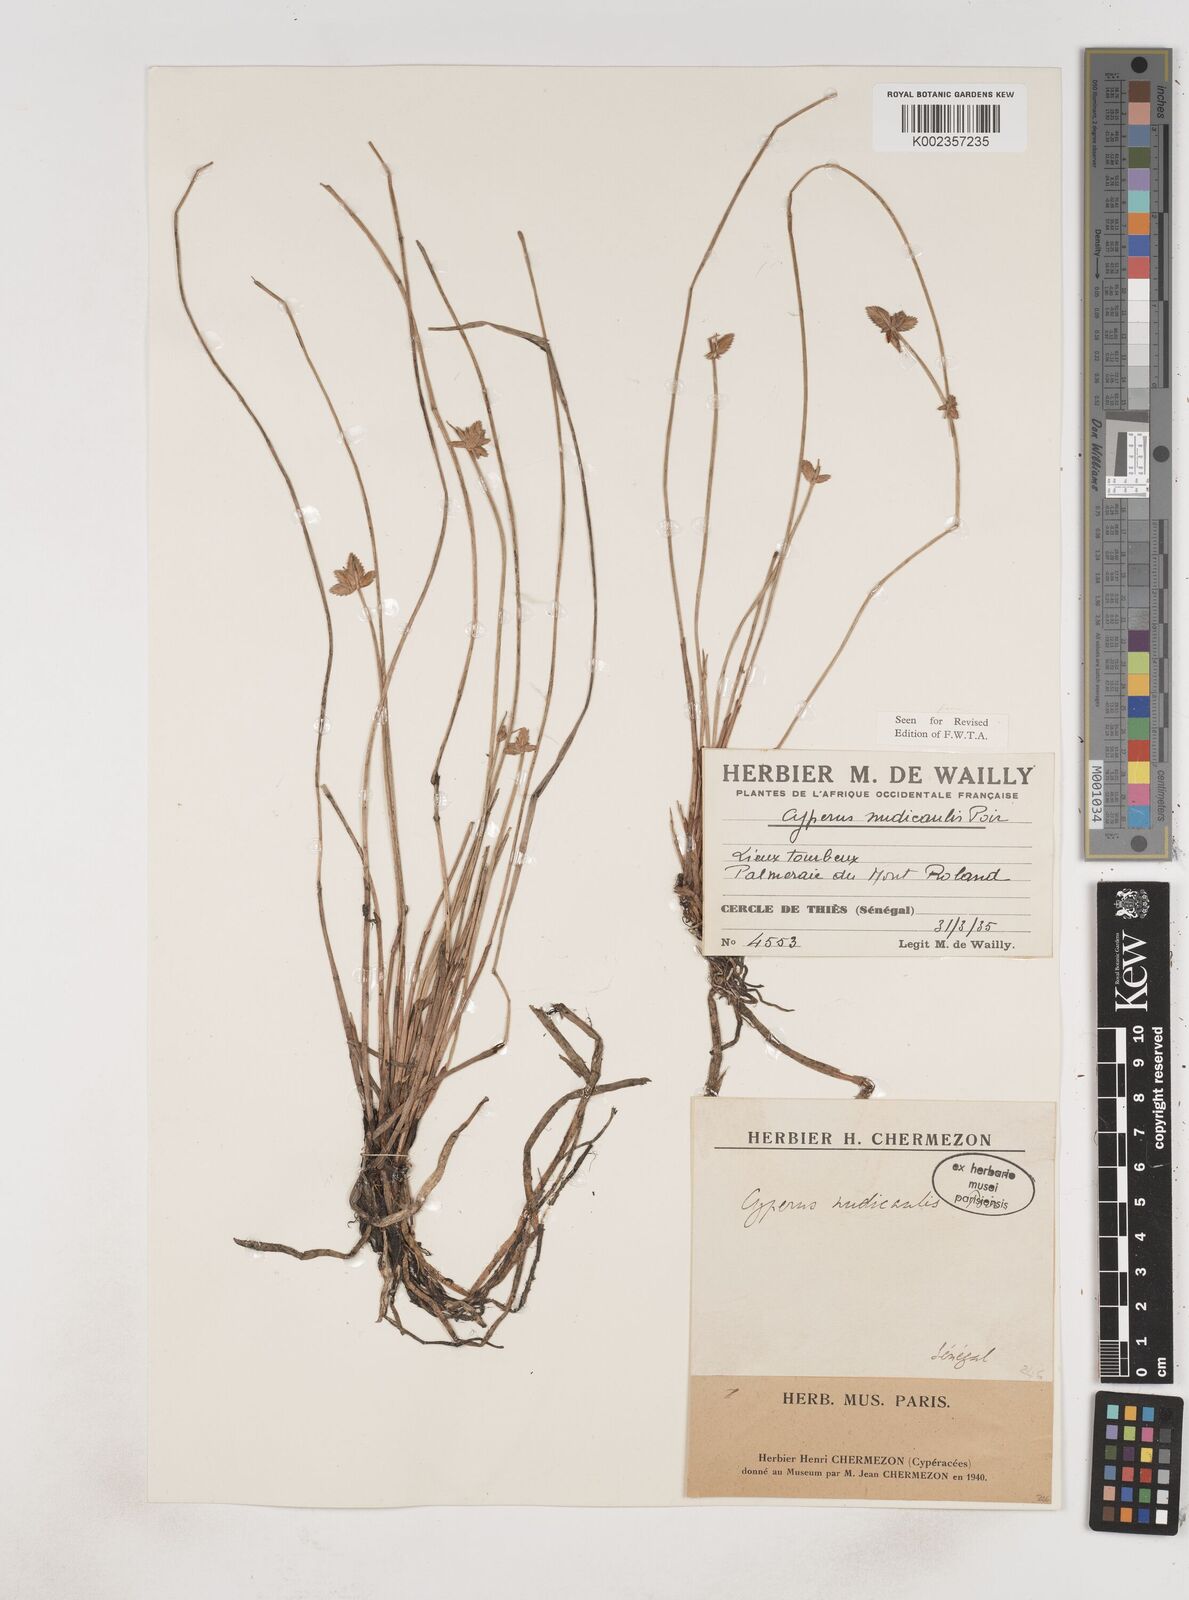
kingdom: Plantae
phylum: Tracheophyta
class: Liliopsida
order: Poales
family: Cyperaceae
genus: Cyperus
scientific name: Cyperus pectinatus
